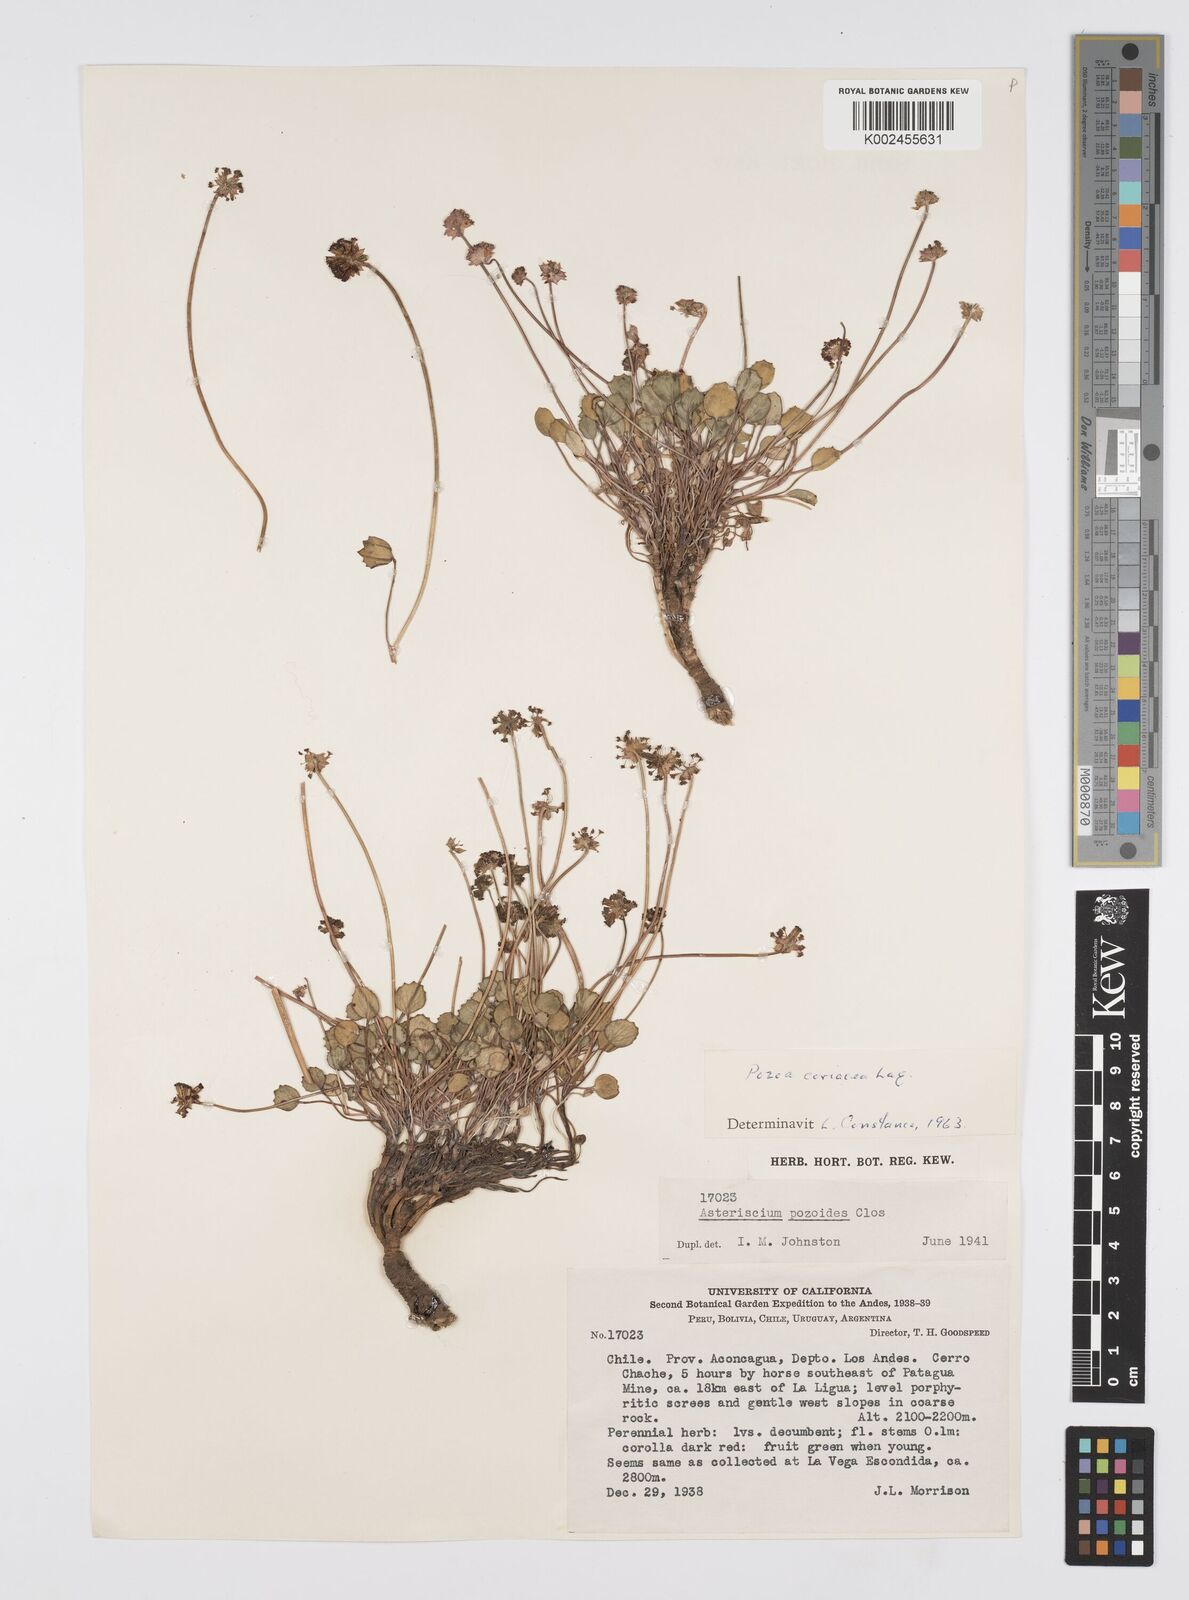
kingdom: Plantae
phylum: Tracheophyta
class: Magnoliopsida
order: Apiales
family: Apiaceae
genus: Pozoa
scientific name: Pozoa coriacea
